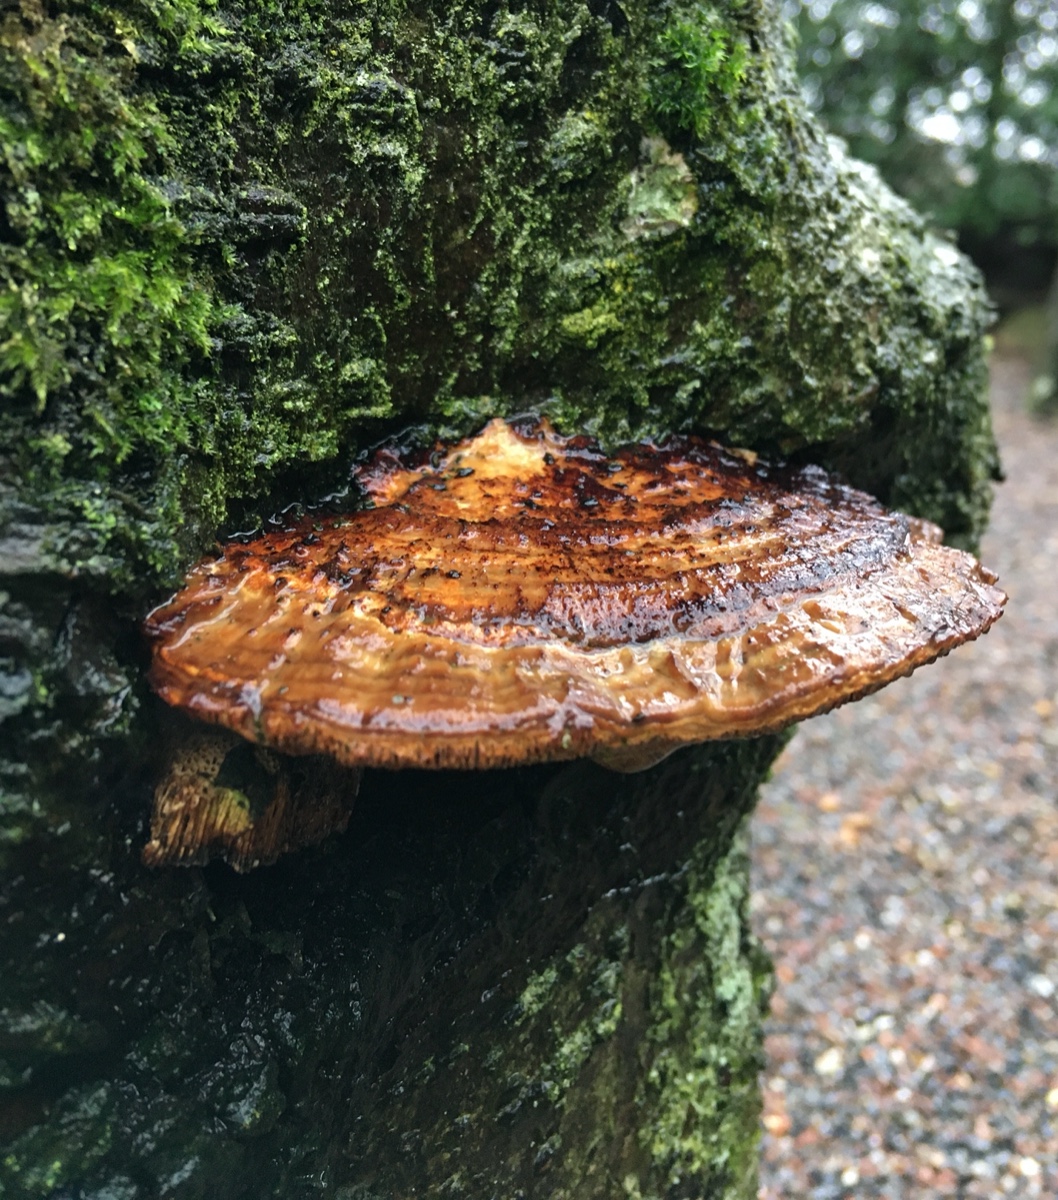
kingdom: Fungi
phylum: Basidiomycota
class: Agaricomycetes
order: Polyporales
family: Polyporaceae
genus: Daedaleopsis
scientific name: Daedaleopsis confragosa
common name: rødmende læderporesvamp
